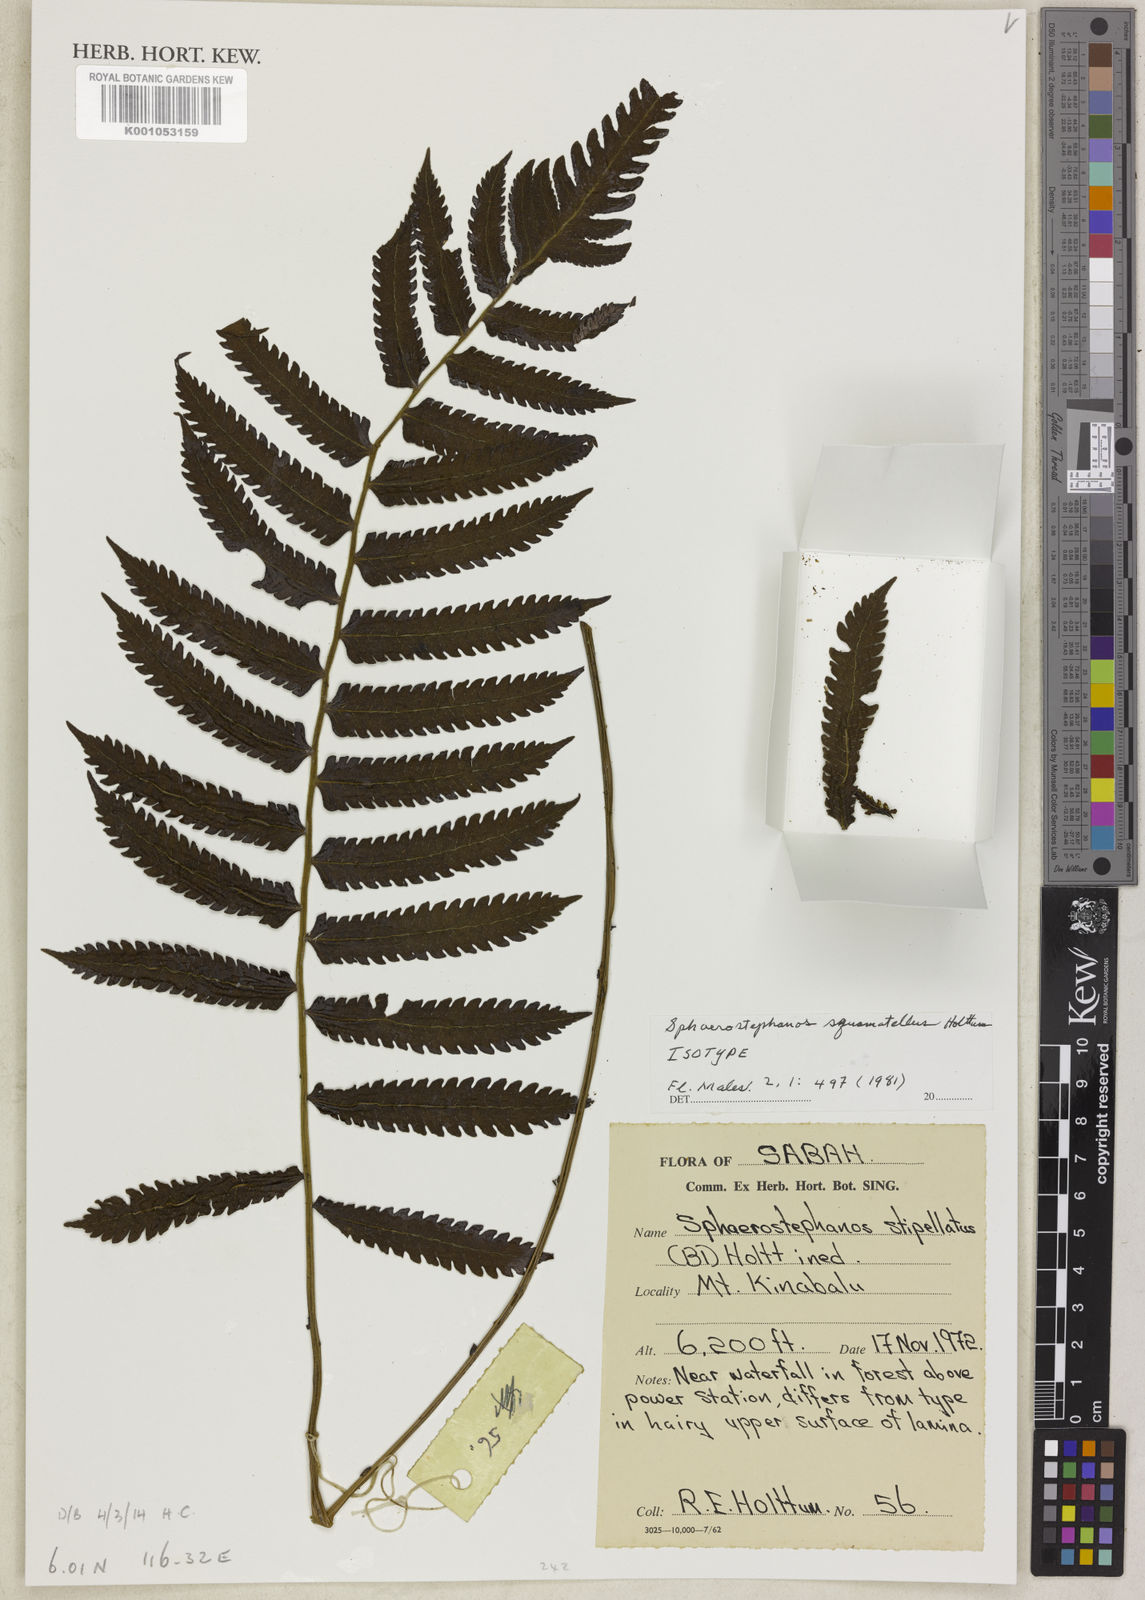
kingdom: Plantae
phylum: Tracheophyta
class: Polypodiopsida
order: Polypodiales
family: Thelypteridaceae
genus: Sphaerostephanos
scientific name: Sphaerostephanos squamatellus
